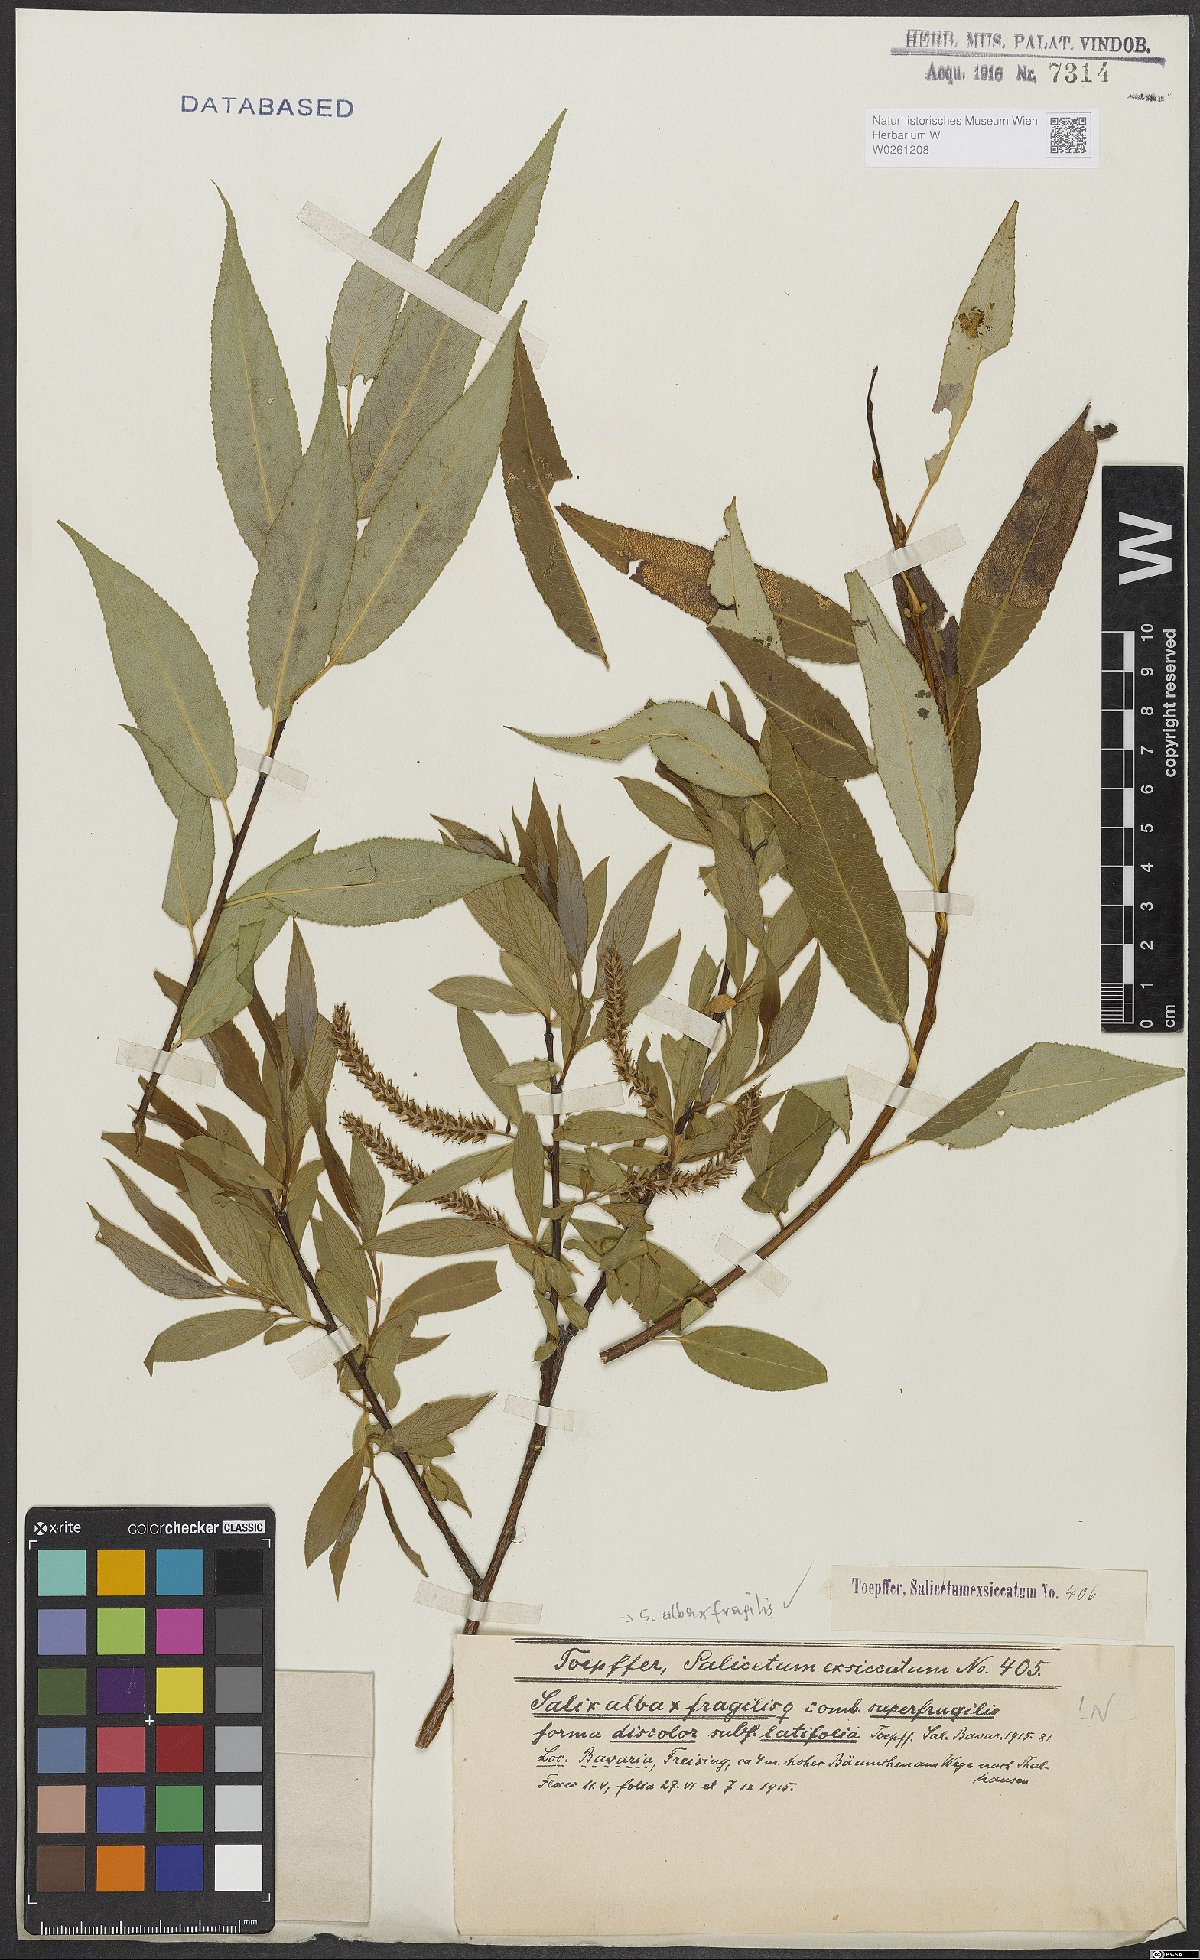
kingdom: Plantae
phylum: Tracheophyta
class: Magnoliopsida
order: Malpighiales
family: Salicaceae
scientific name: Salicaceae
